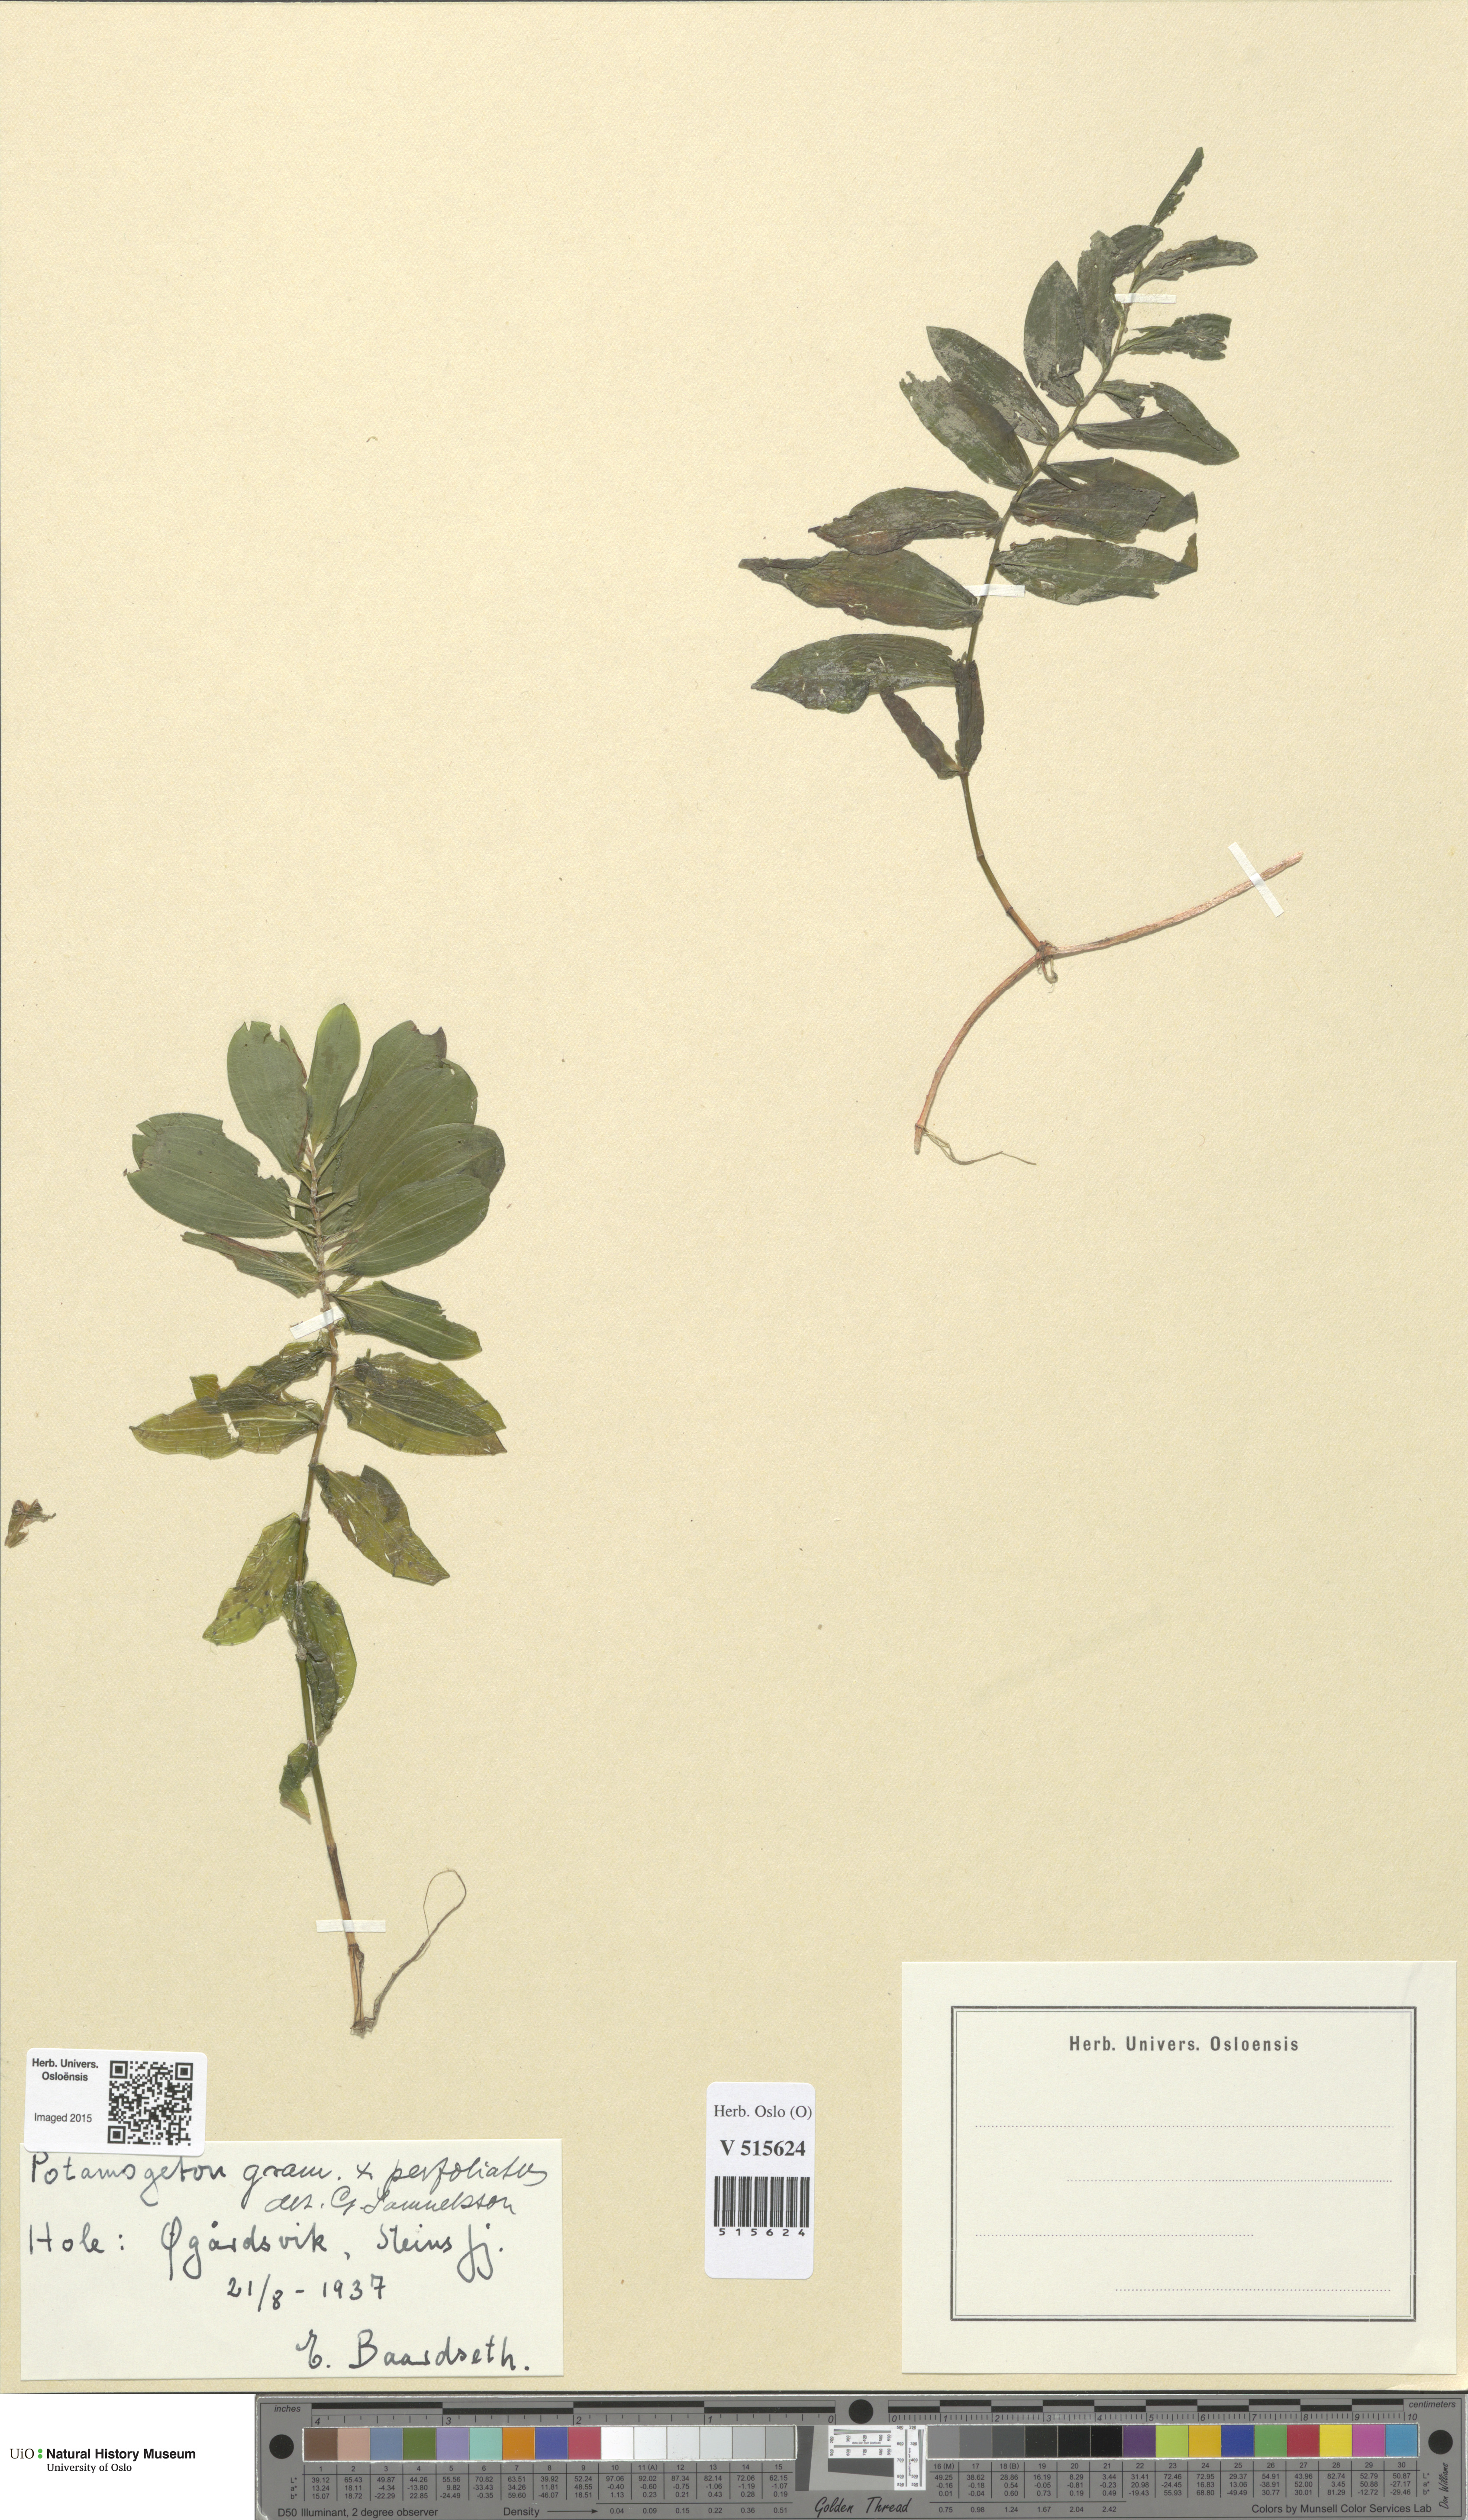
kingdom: Plantae
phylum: Tracheophyta
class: Liliopsida
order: Alismatales
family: Potamogetonaceae
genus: Potamogeton
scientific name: Potamogeton nitens
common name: Pondweed
